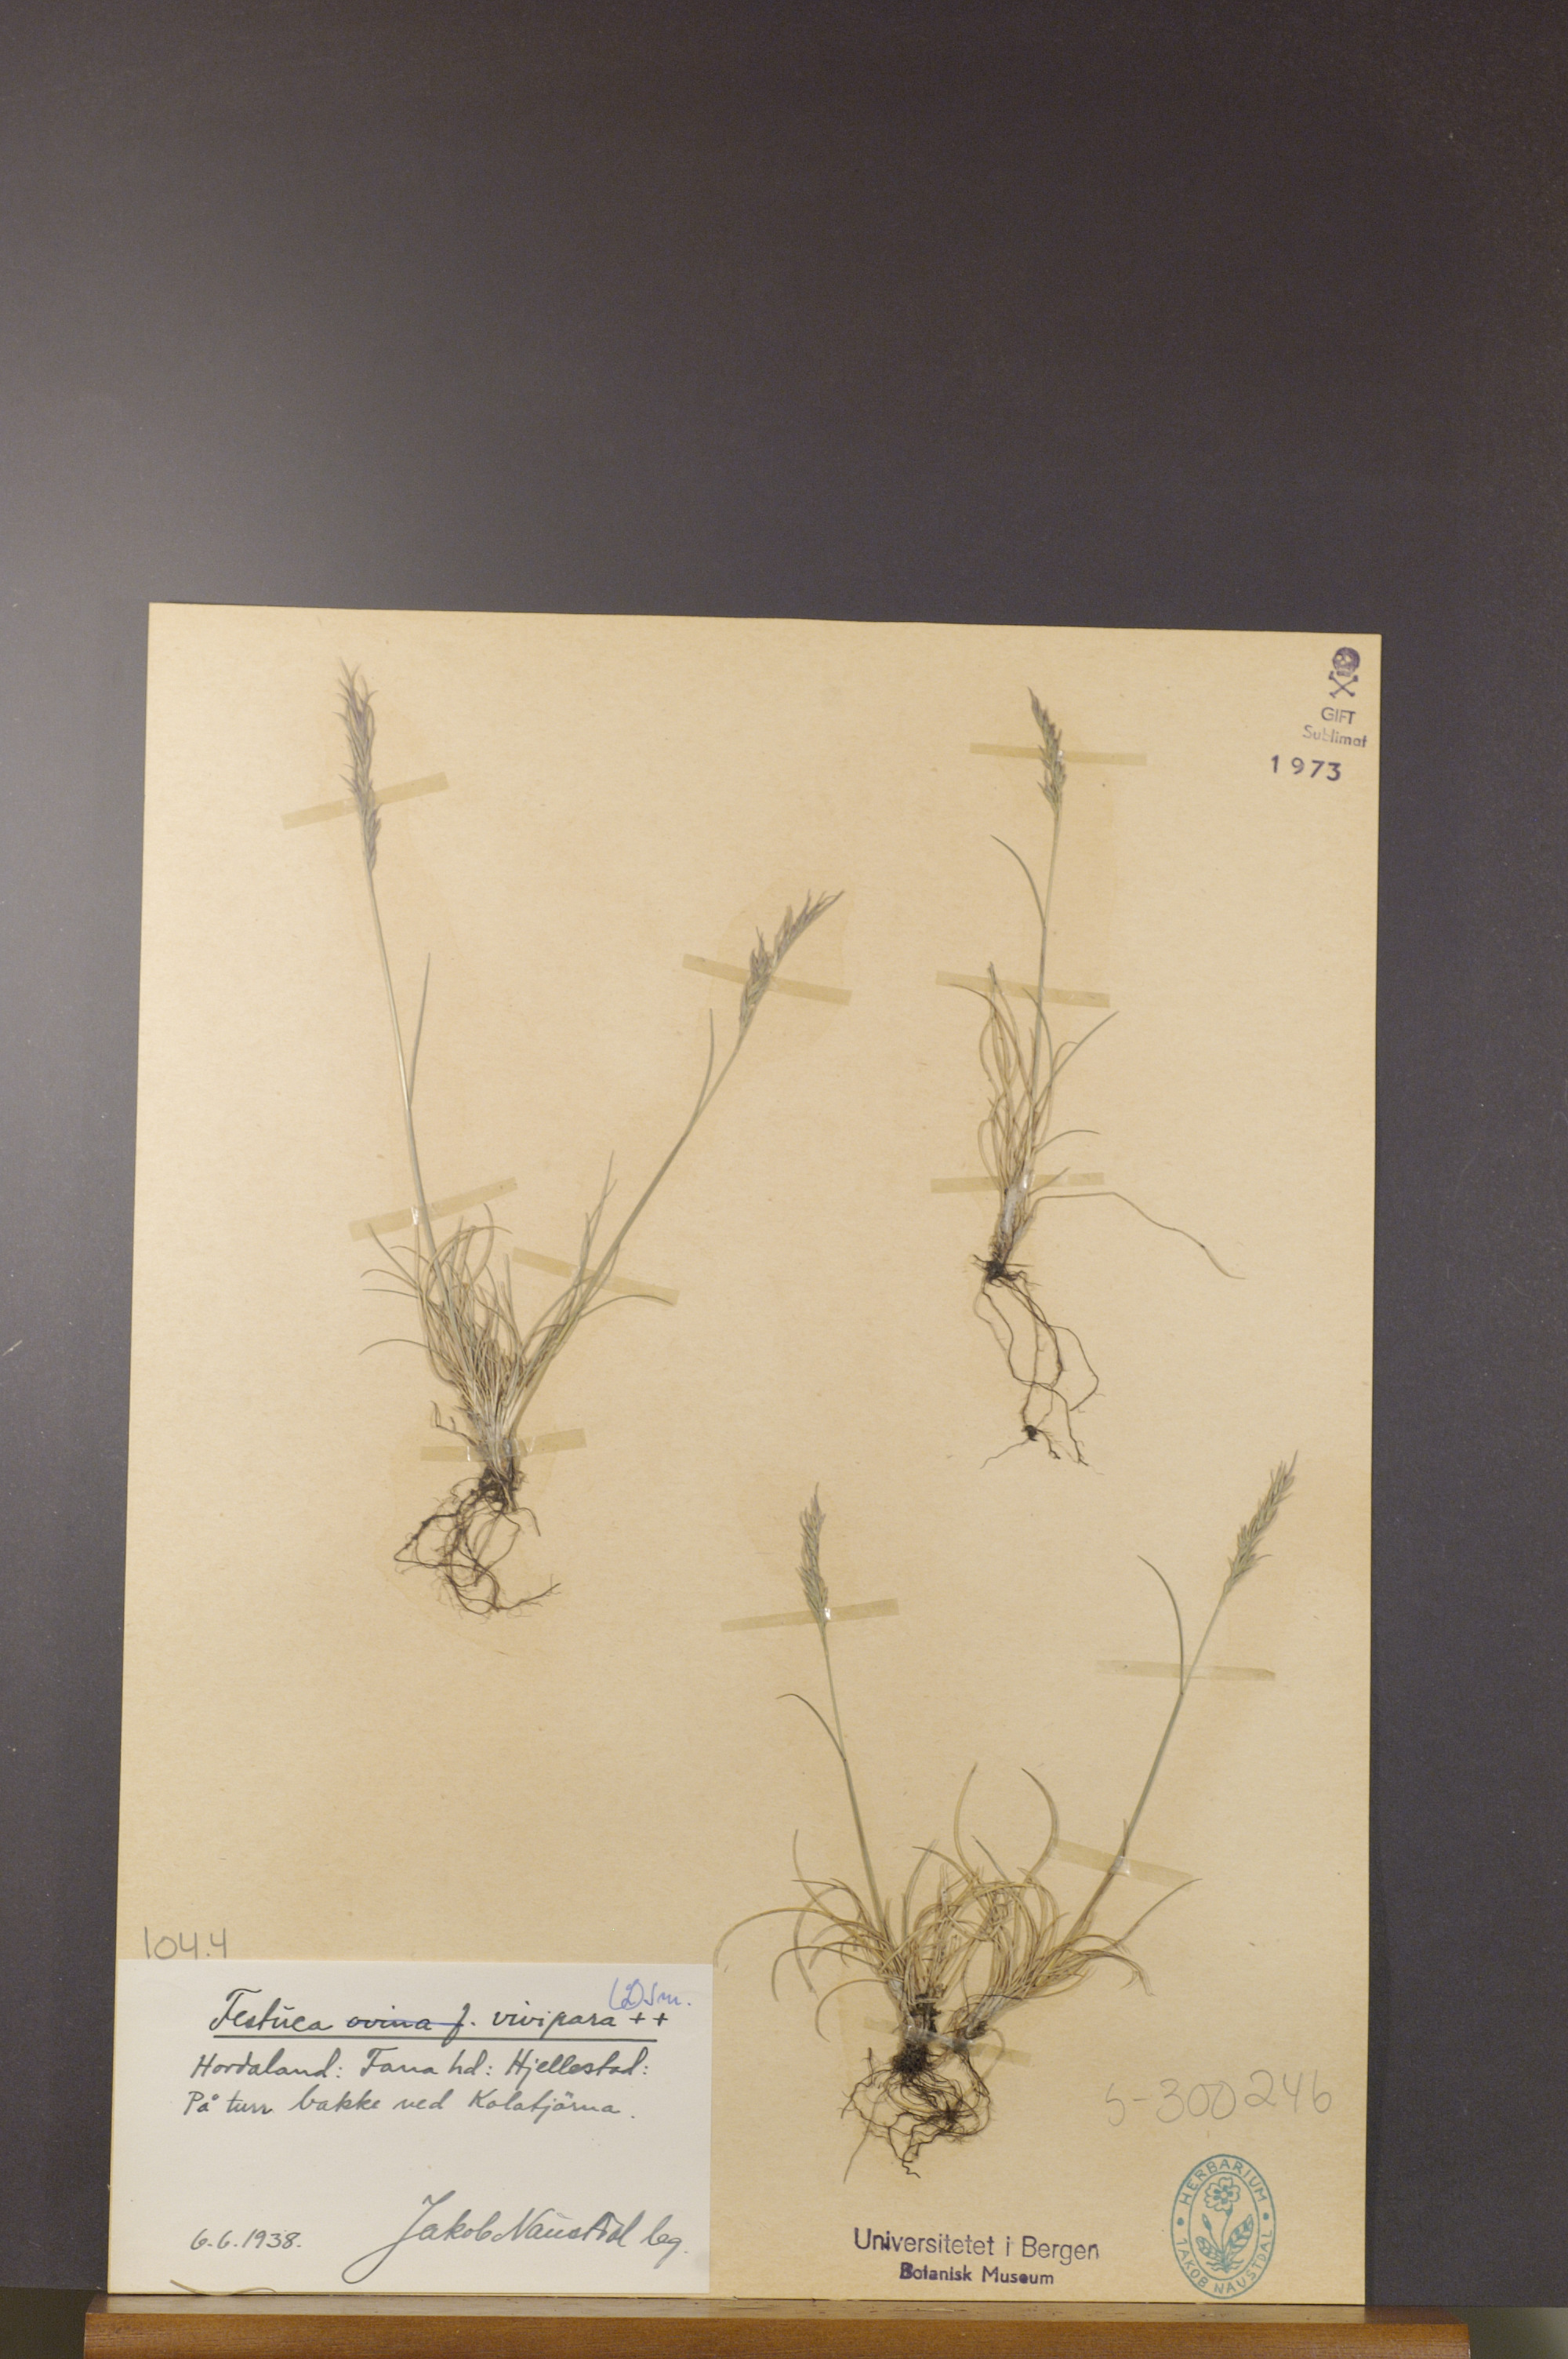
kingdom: Plantae
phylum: Tracheophyta
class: Liliopsida
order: Poales
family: Poaceae
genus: Festuca
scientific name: Festuca vivipara
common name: Viviparous sheep's-fescue
